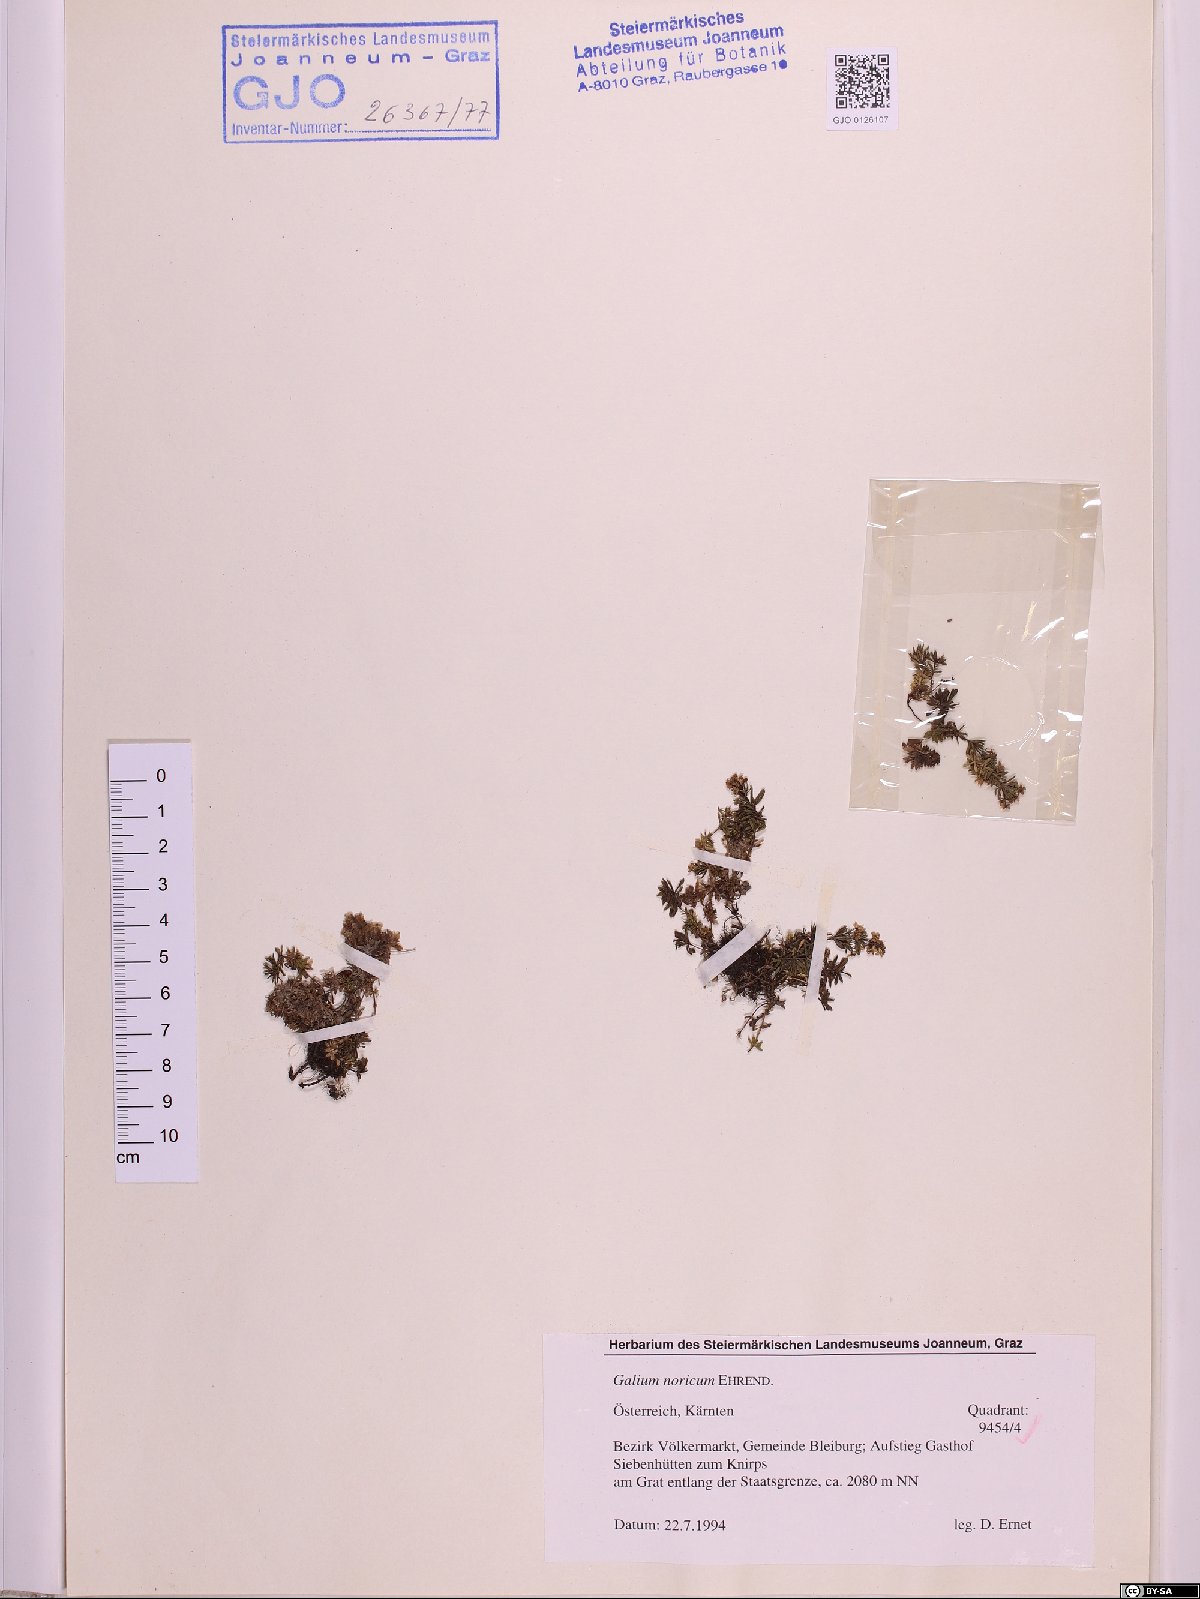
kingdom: Plantae
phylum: Tracheophyta
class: Magnoliopsida
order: Gentianales
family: Rubiaceae
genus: Galium
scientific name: Galium noricum
